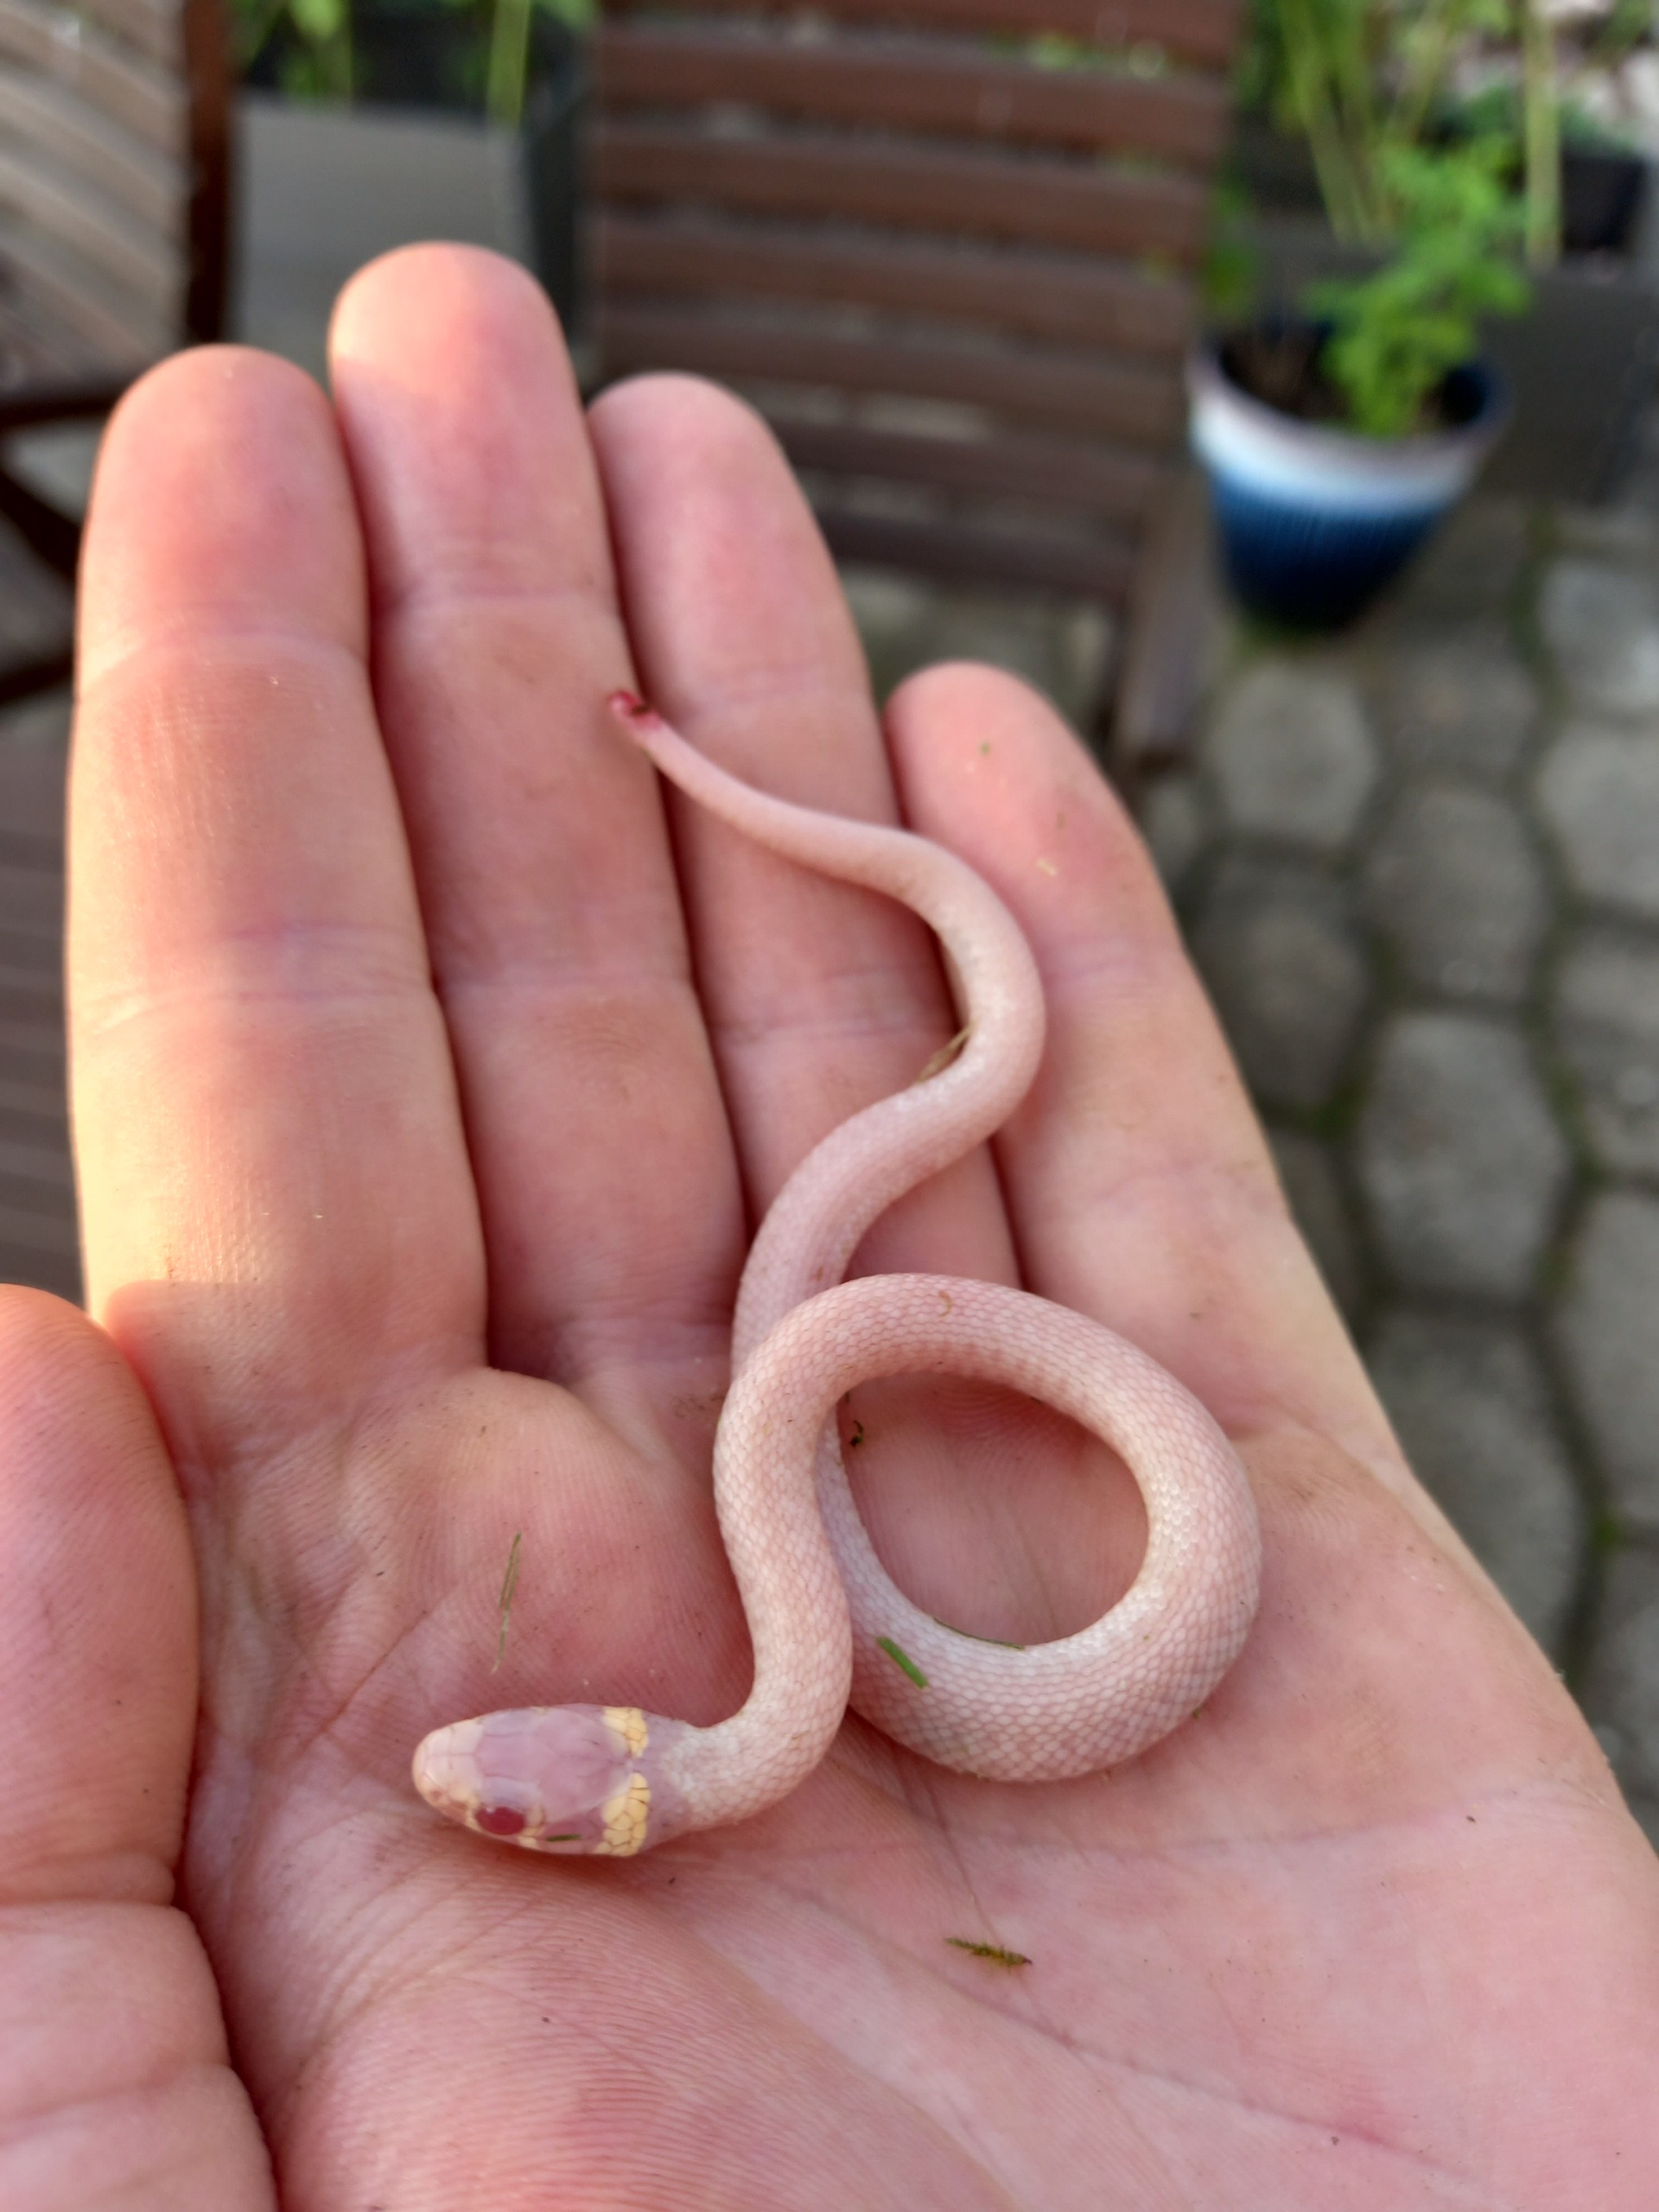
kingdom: Animalia
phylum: Chordata
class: Squamata
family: Colubridae
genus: Natrix
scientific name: Natrix natrix
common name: Snog
